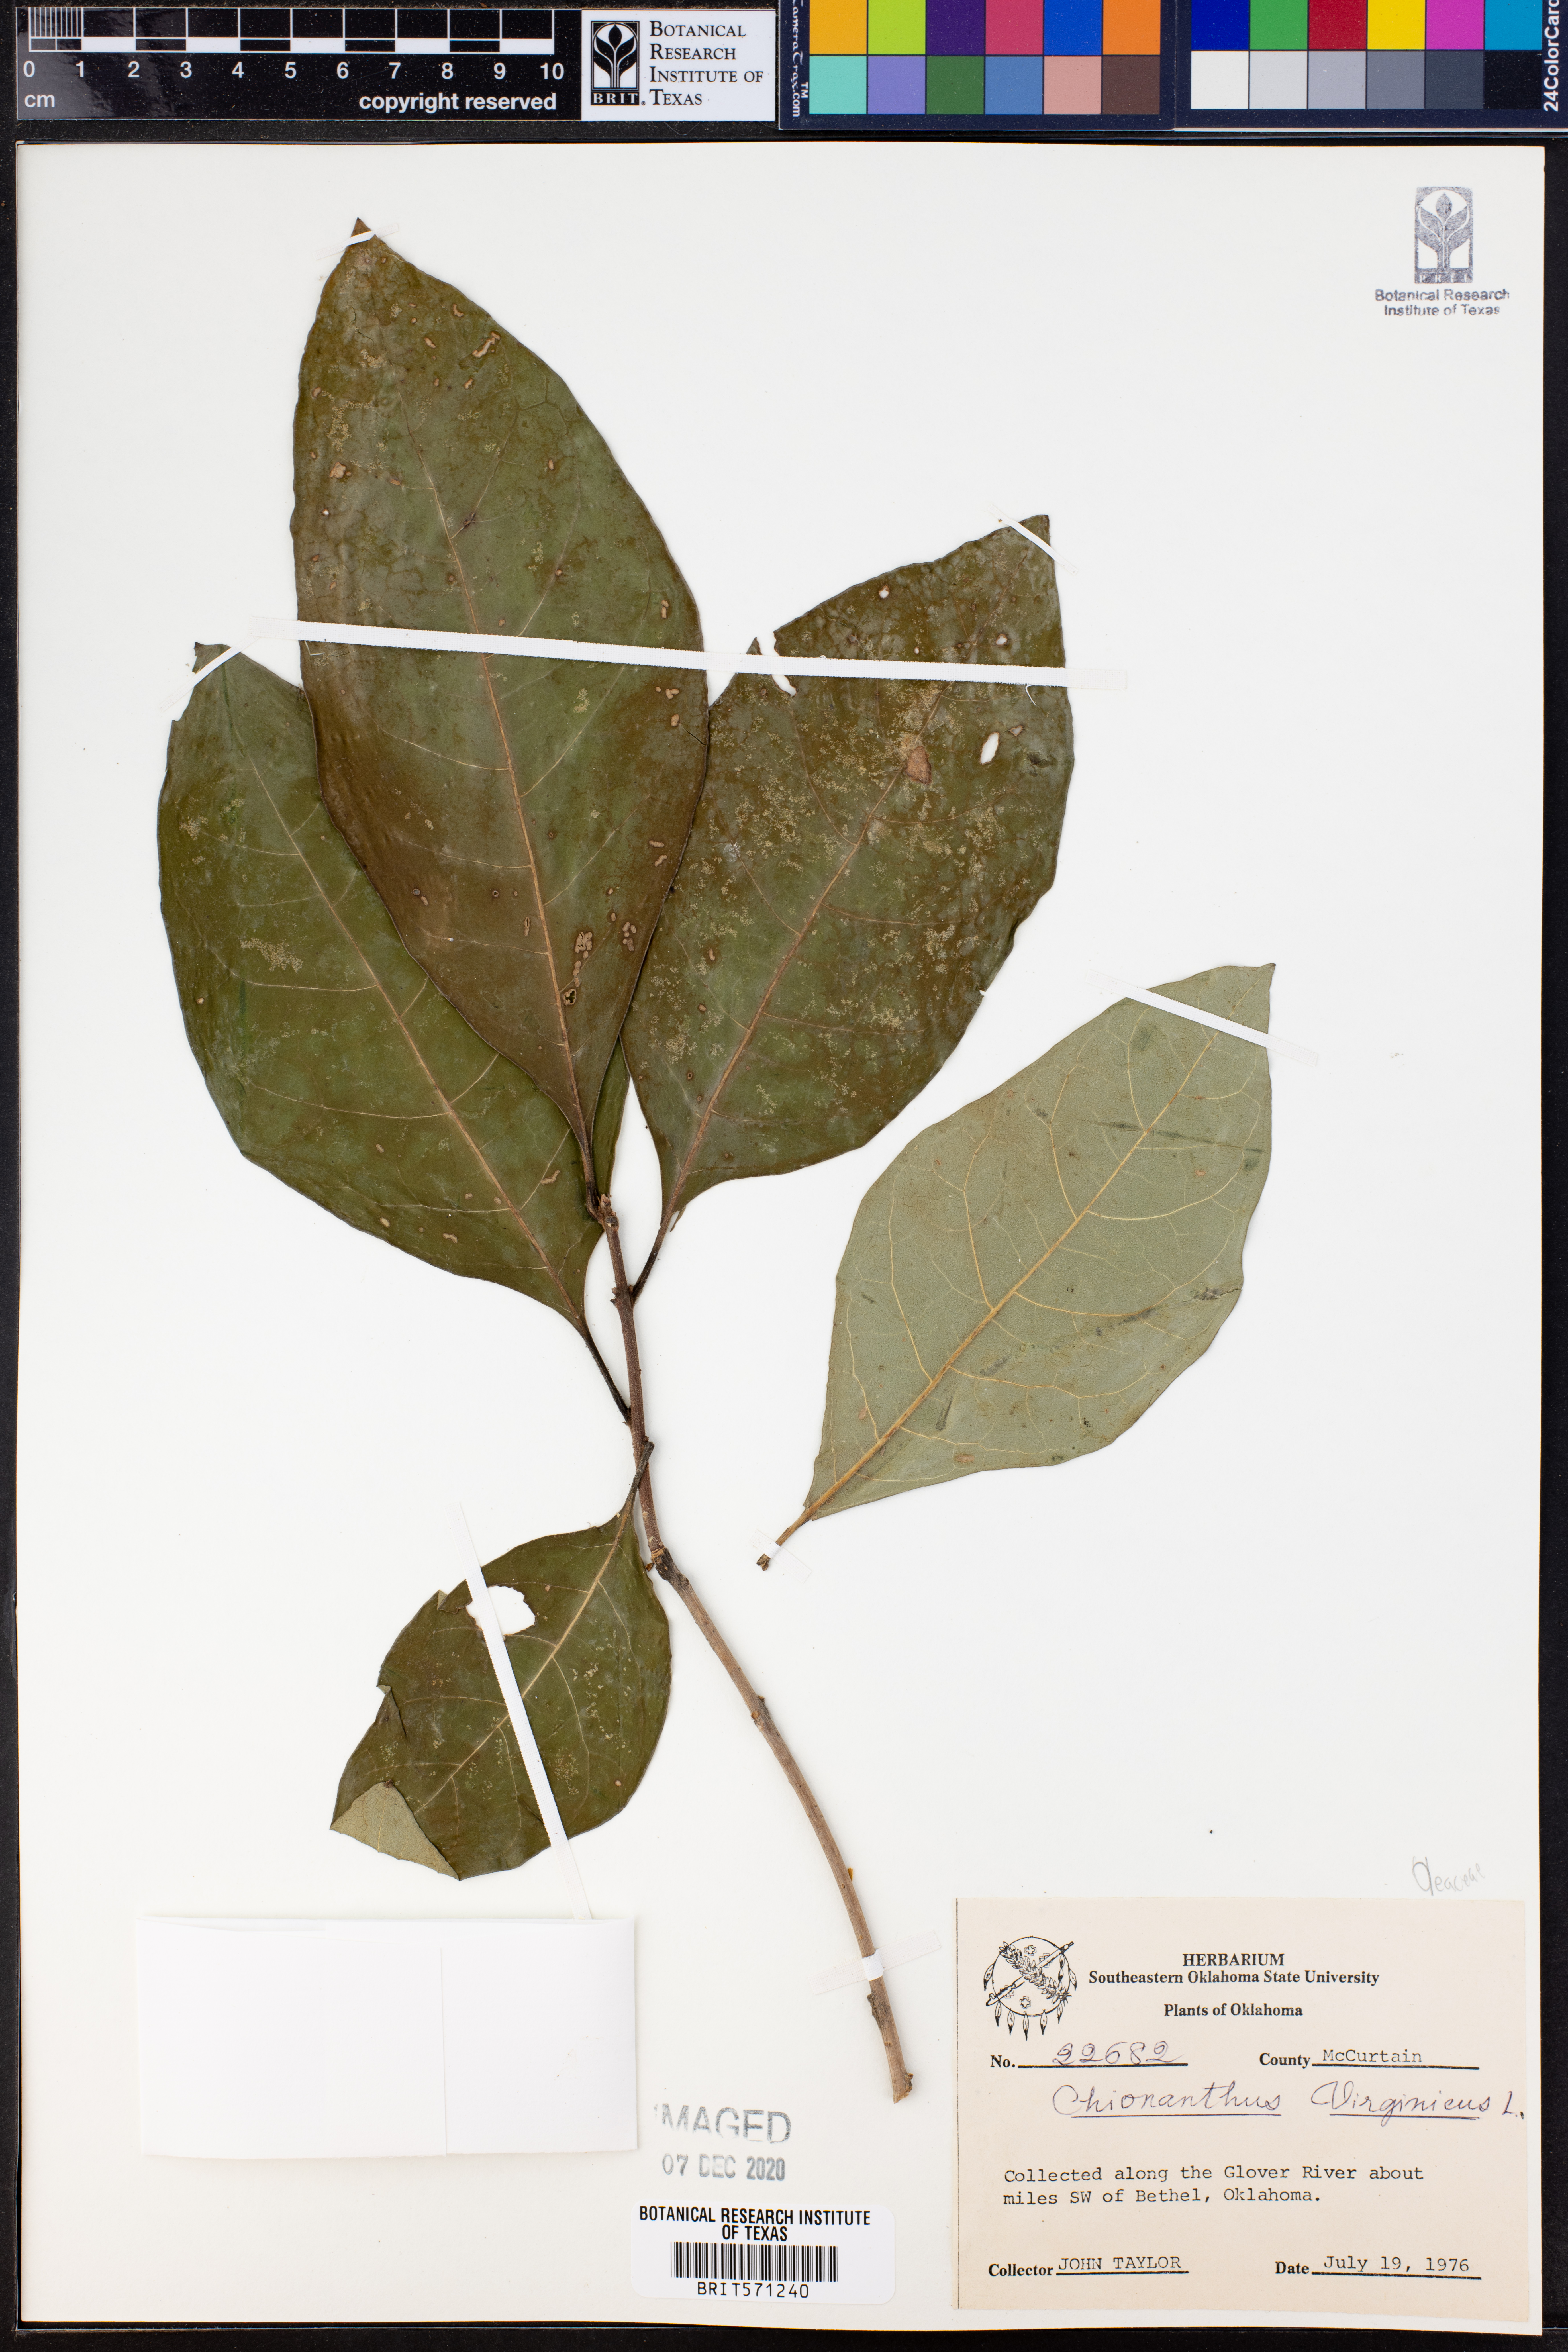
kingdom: Plantae
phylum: Tracheophyta
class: Magnoliopsida
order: Lamiales
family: Oleaceae
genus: Chionanthus
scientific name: Chionanthus virginicus
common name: American fringetree
